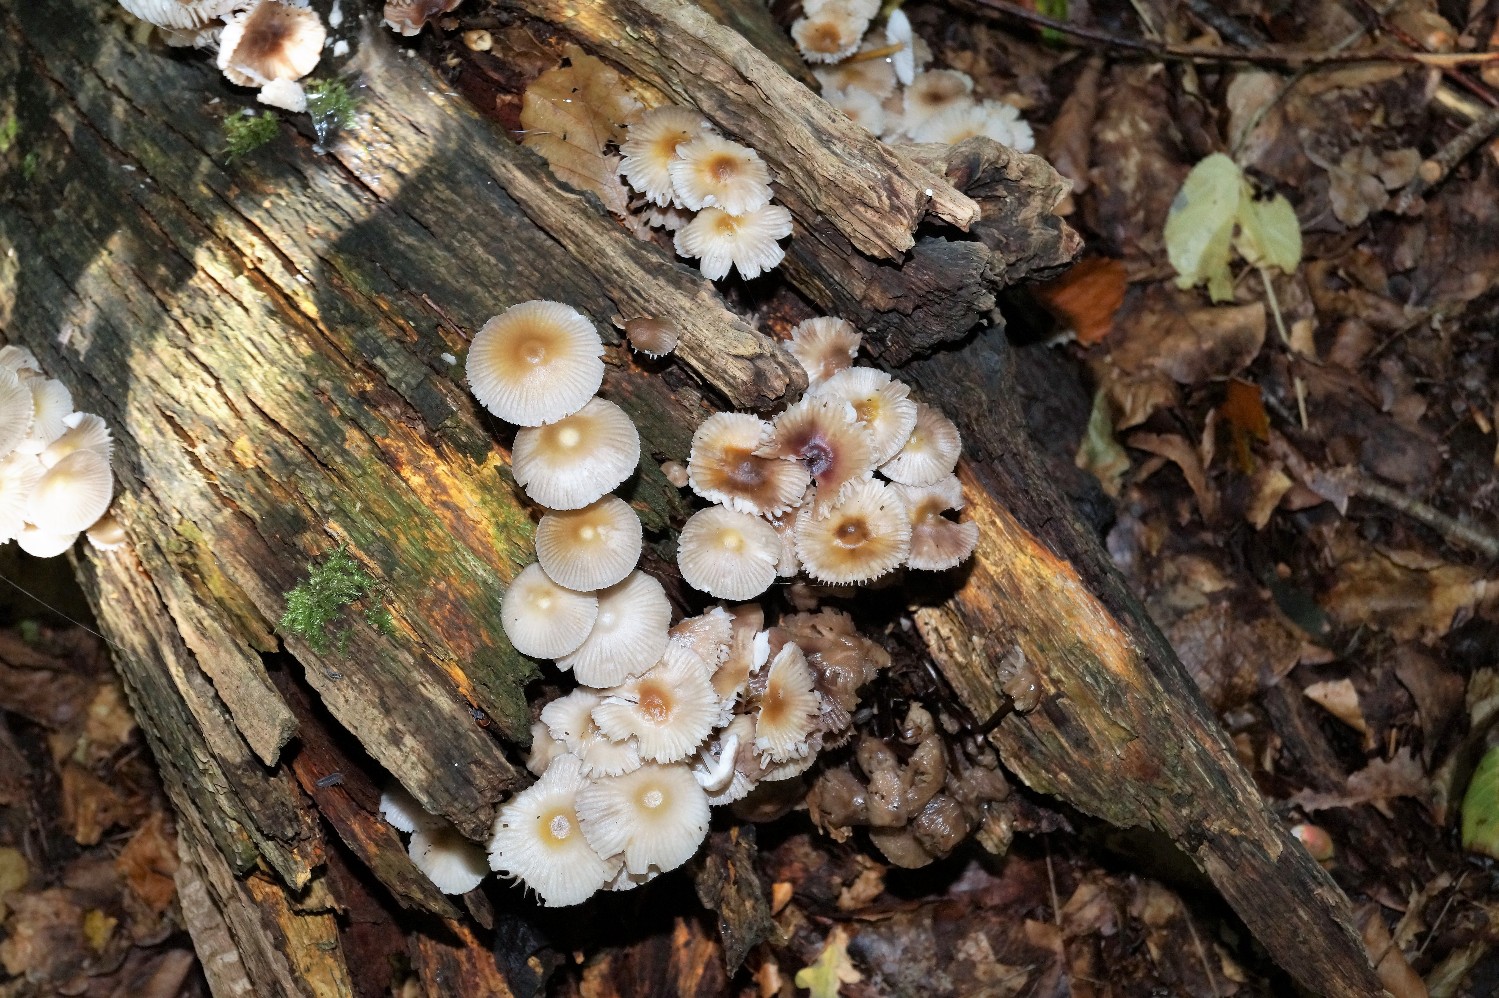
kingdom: Fungi
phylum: Basidiomycota
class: Agaricomycetes
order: Agaricales
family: Mycenaceae
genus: Mycena
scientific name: Mycena inclinata
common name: nikkende huesvamp
